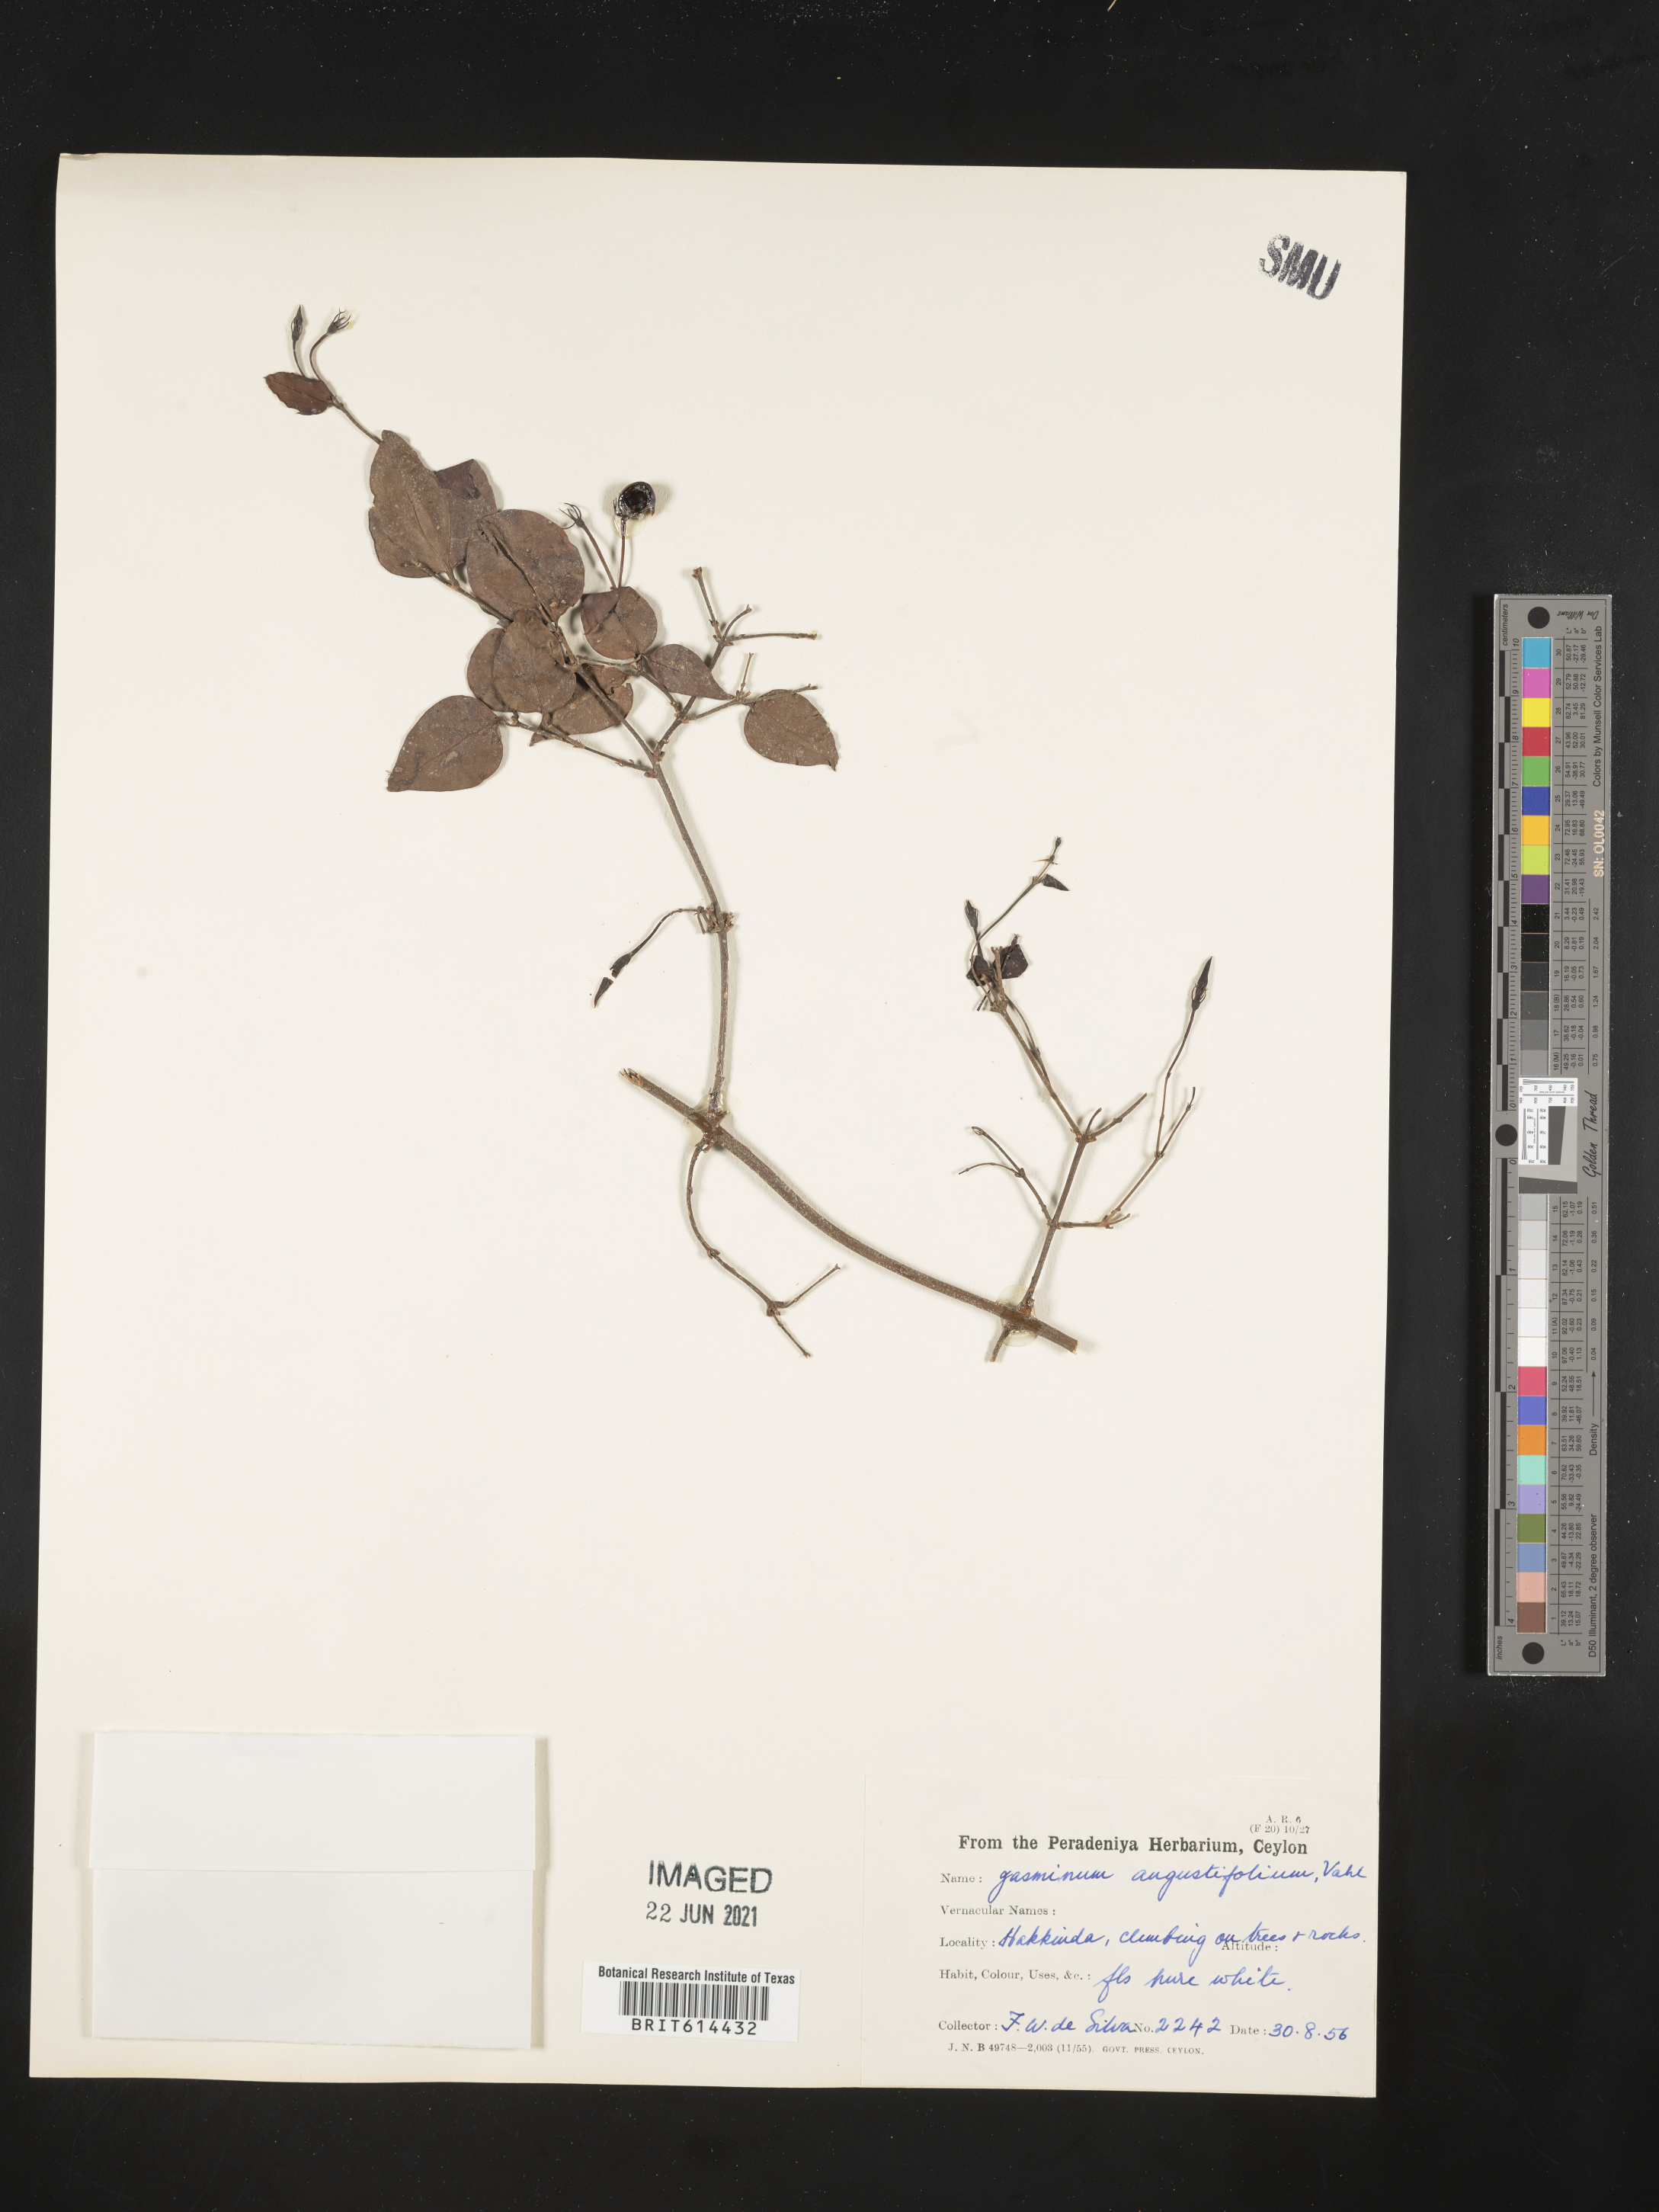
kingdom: Plantae
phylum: Tracheophyta
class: Magnoliopsida
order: Lamiales
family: Oleaceae
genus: Jasminum
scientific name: Jasminum angustifolium
